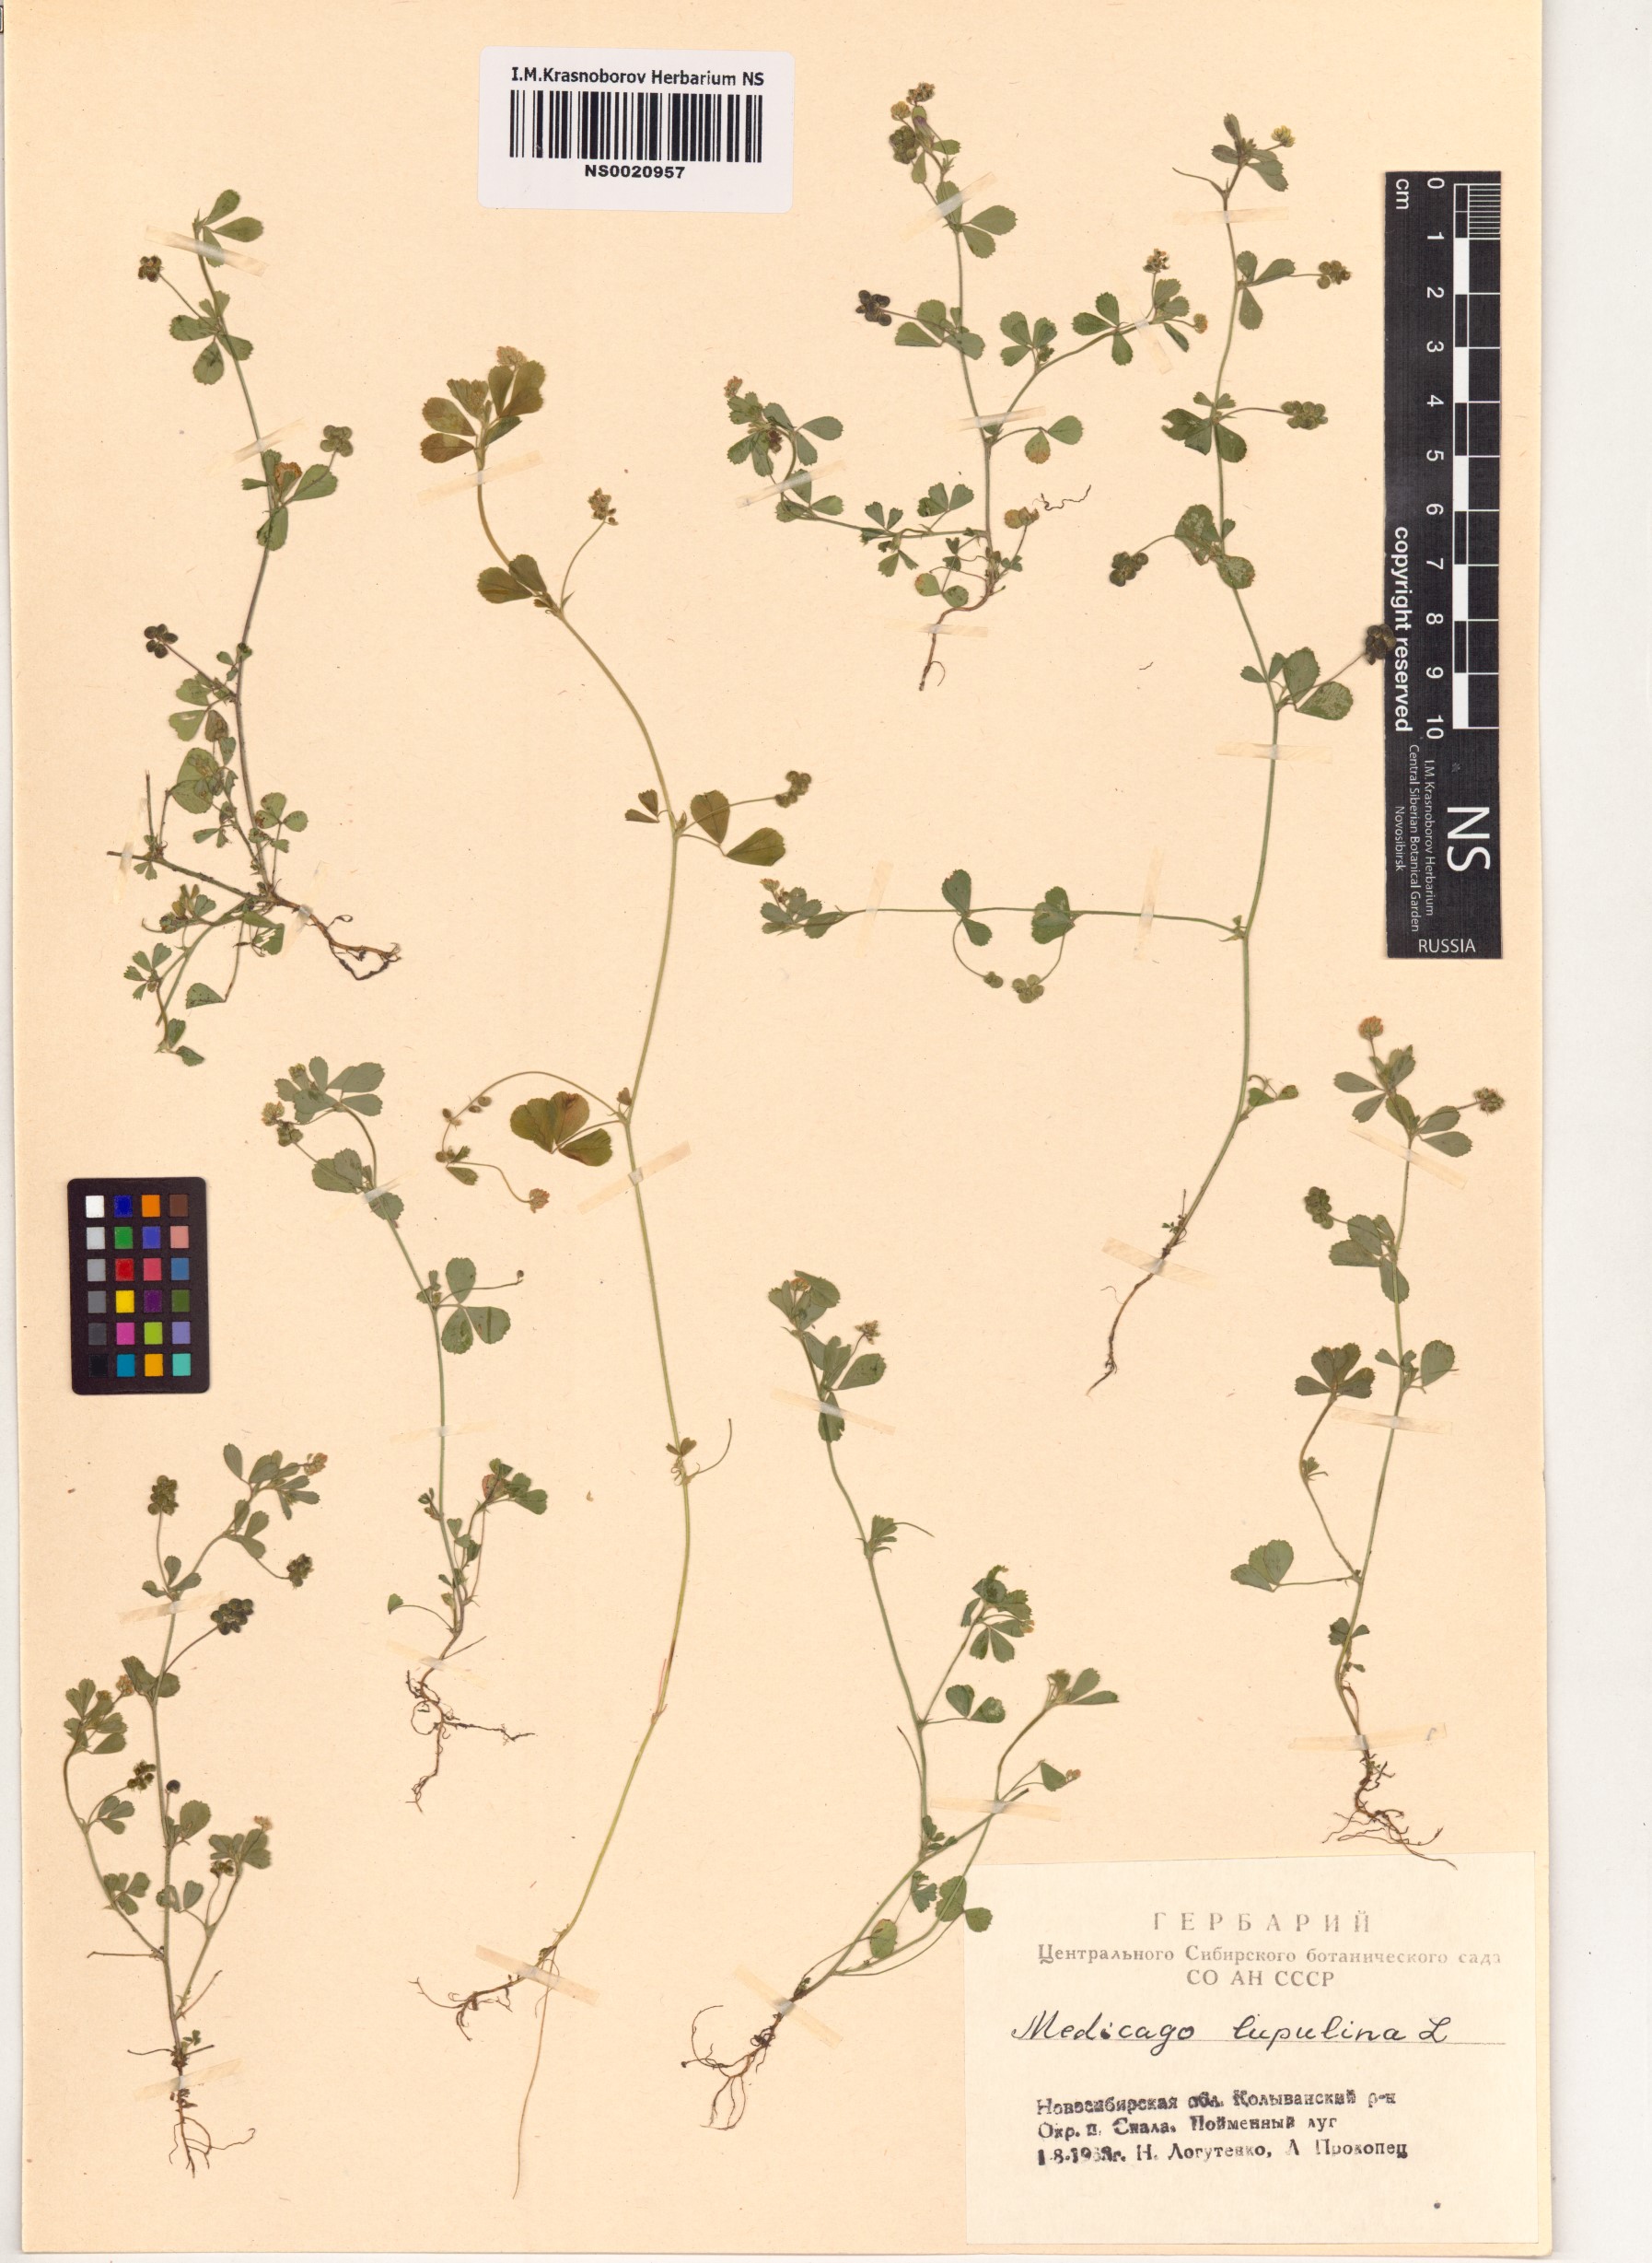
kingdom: Plantae
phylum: Tracheophyta
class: Magnoliopsida
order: Fabales
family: Fabaceae
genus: Medicago
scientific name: Medicago lupulina
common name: Black medick
